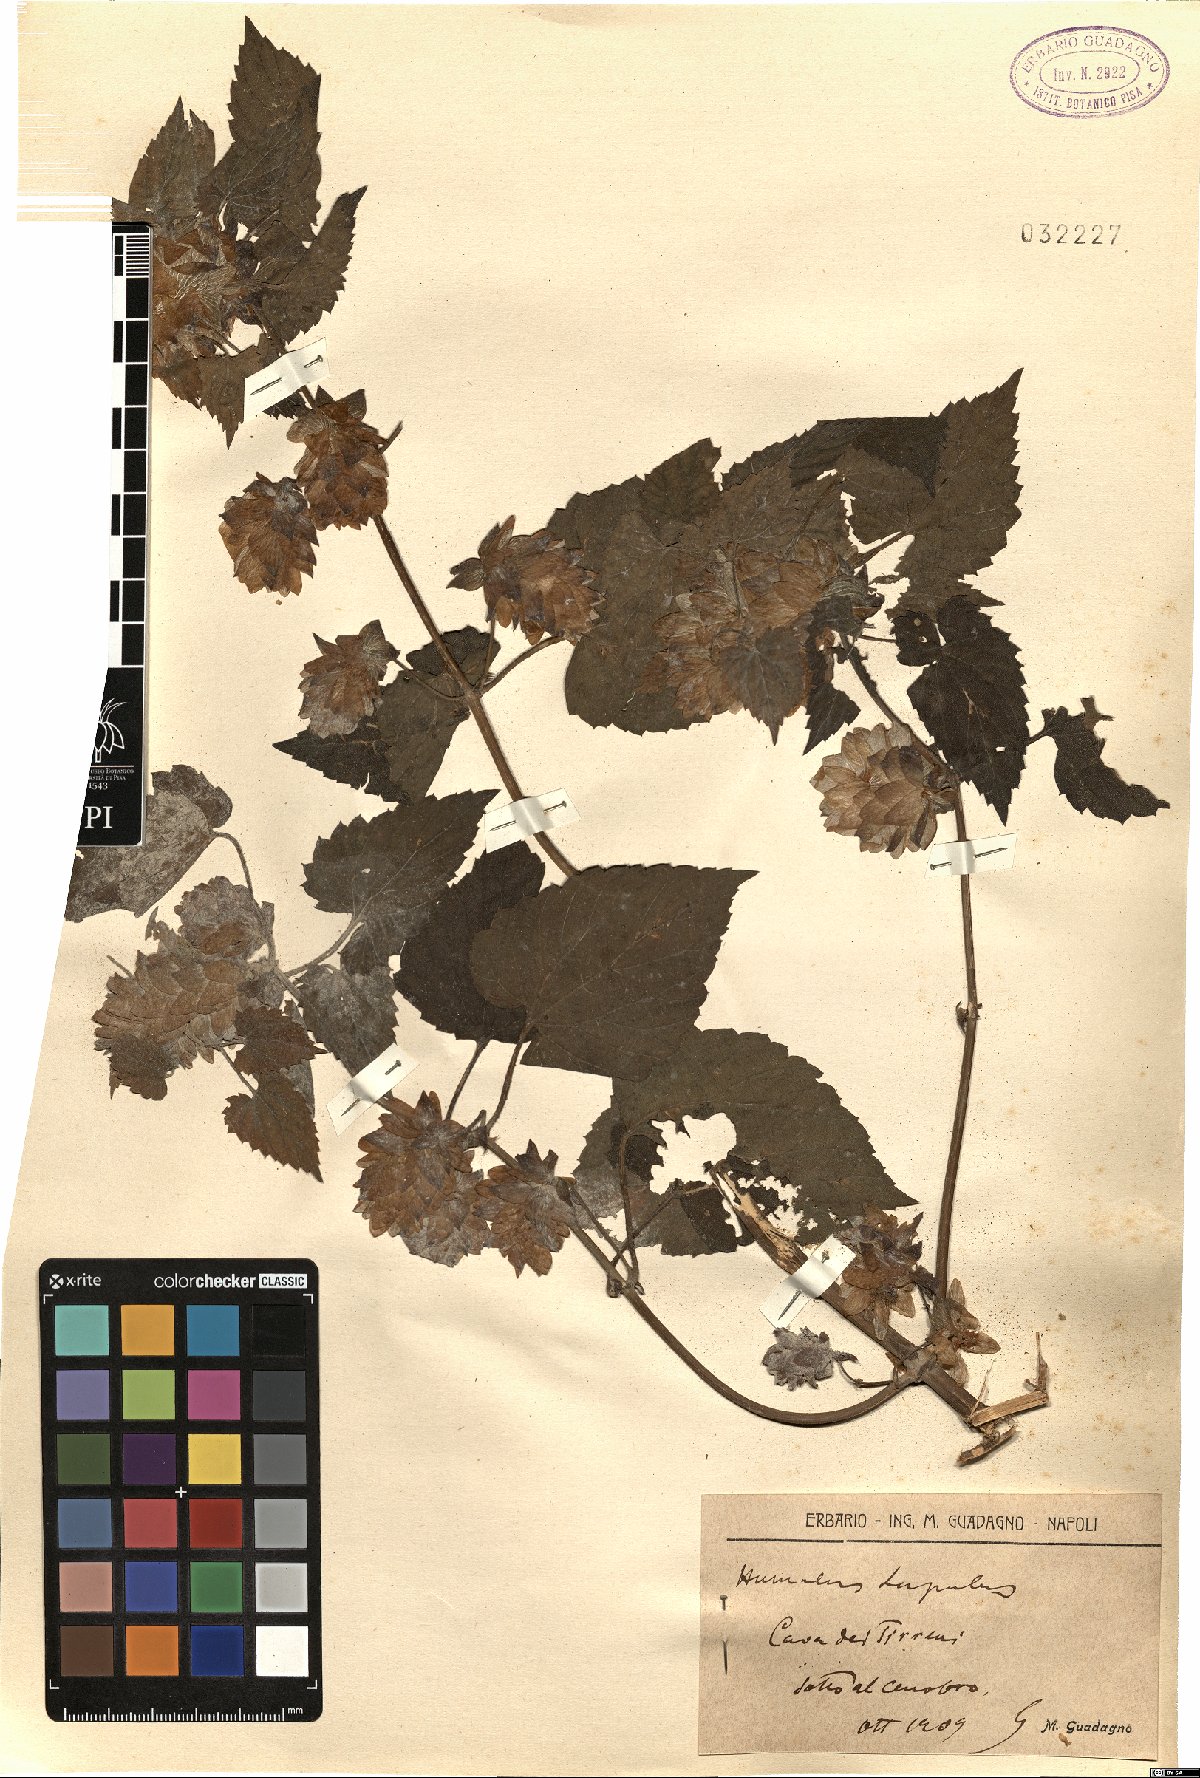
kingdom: Plantae
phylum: Tracheophyta
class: Magnoliopsida
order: Rosales
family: Cannabaceae
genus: Humulus
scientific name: Humulus lupulus
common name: Hop
